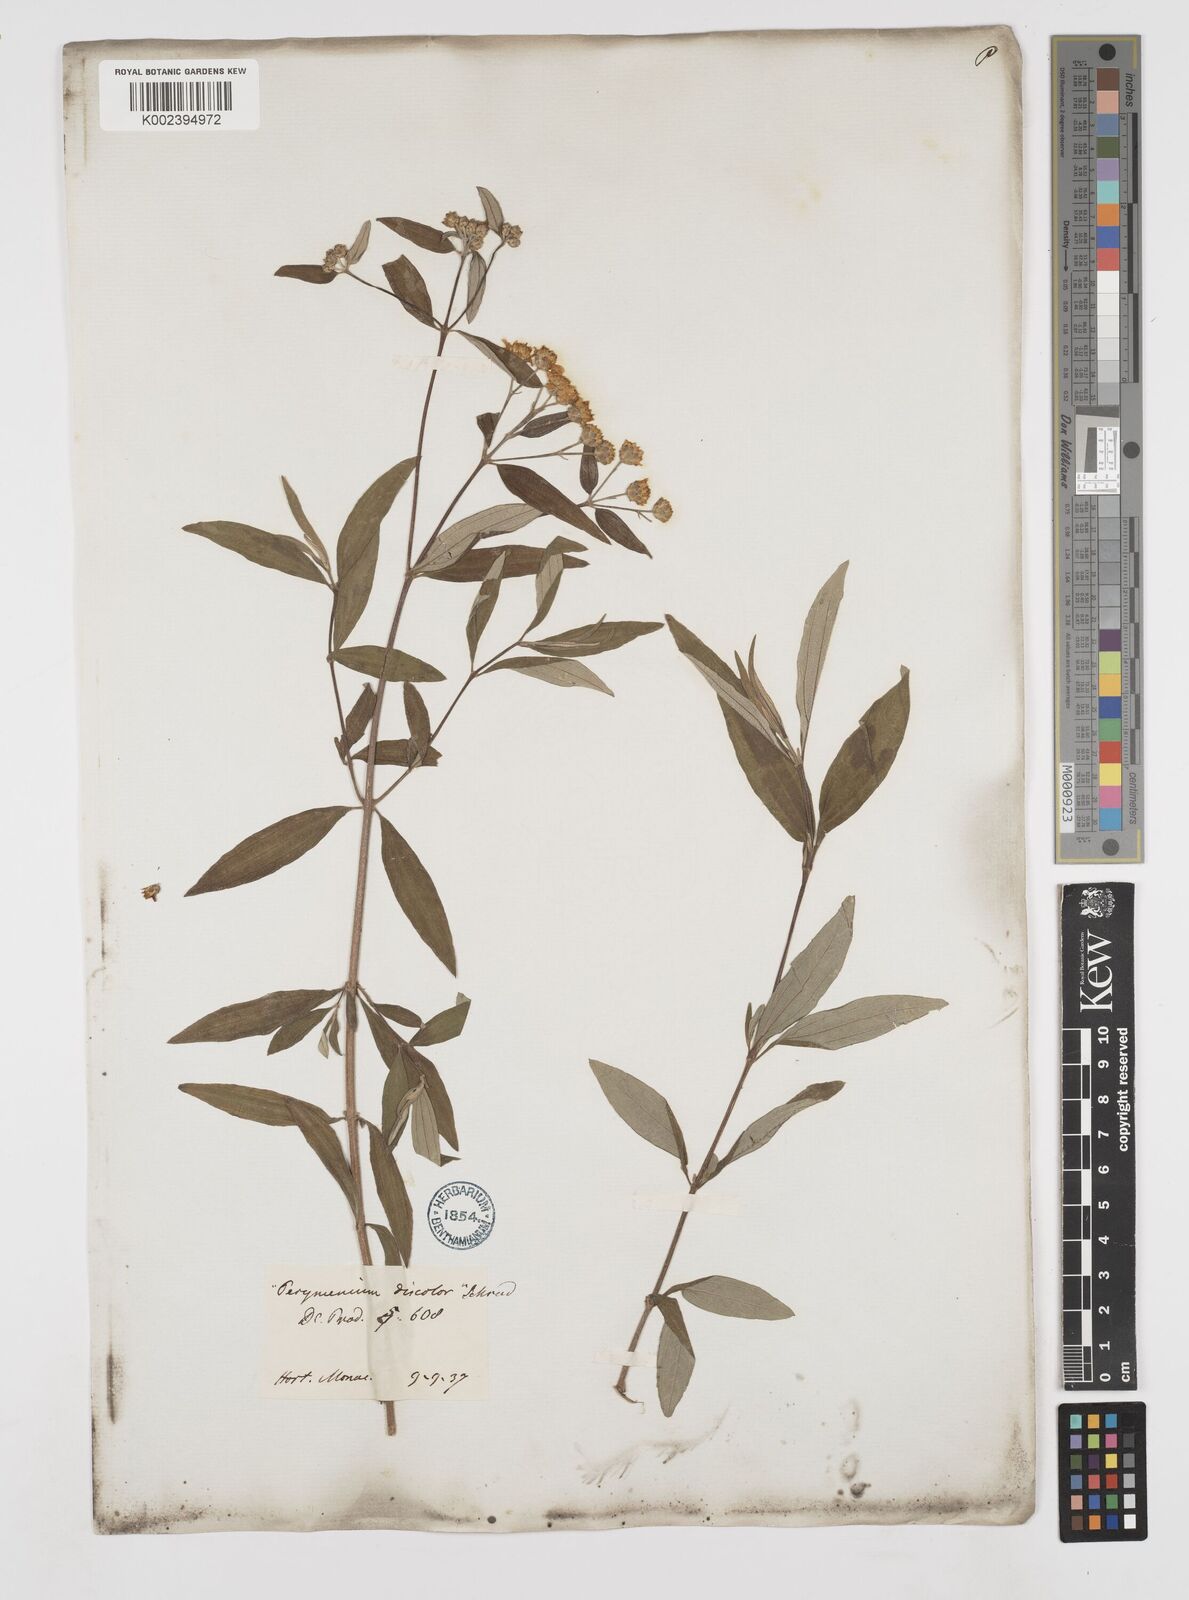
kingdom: Plantae
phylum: Tracheophyta
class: Magnoliopsida
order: Asterales
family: Asteraceae
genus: Perymenium
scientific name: Perymenium discolor
